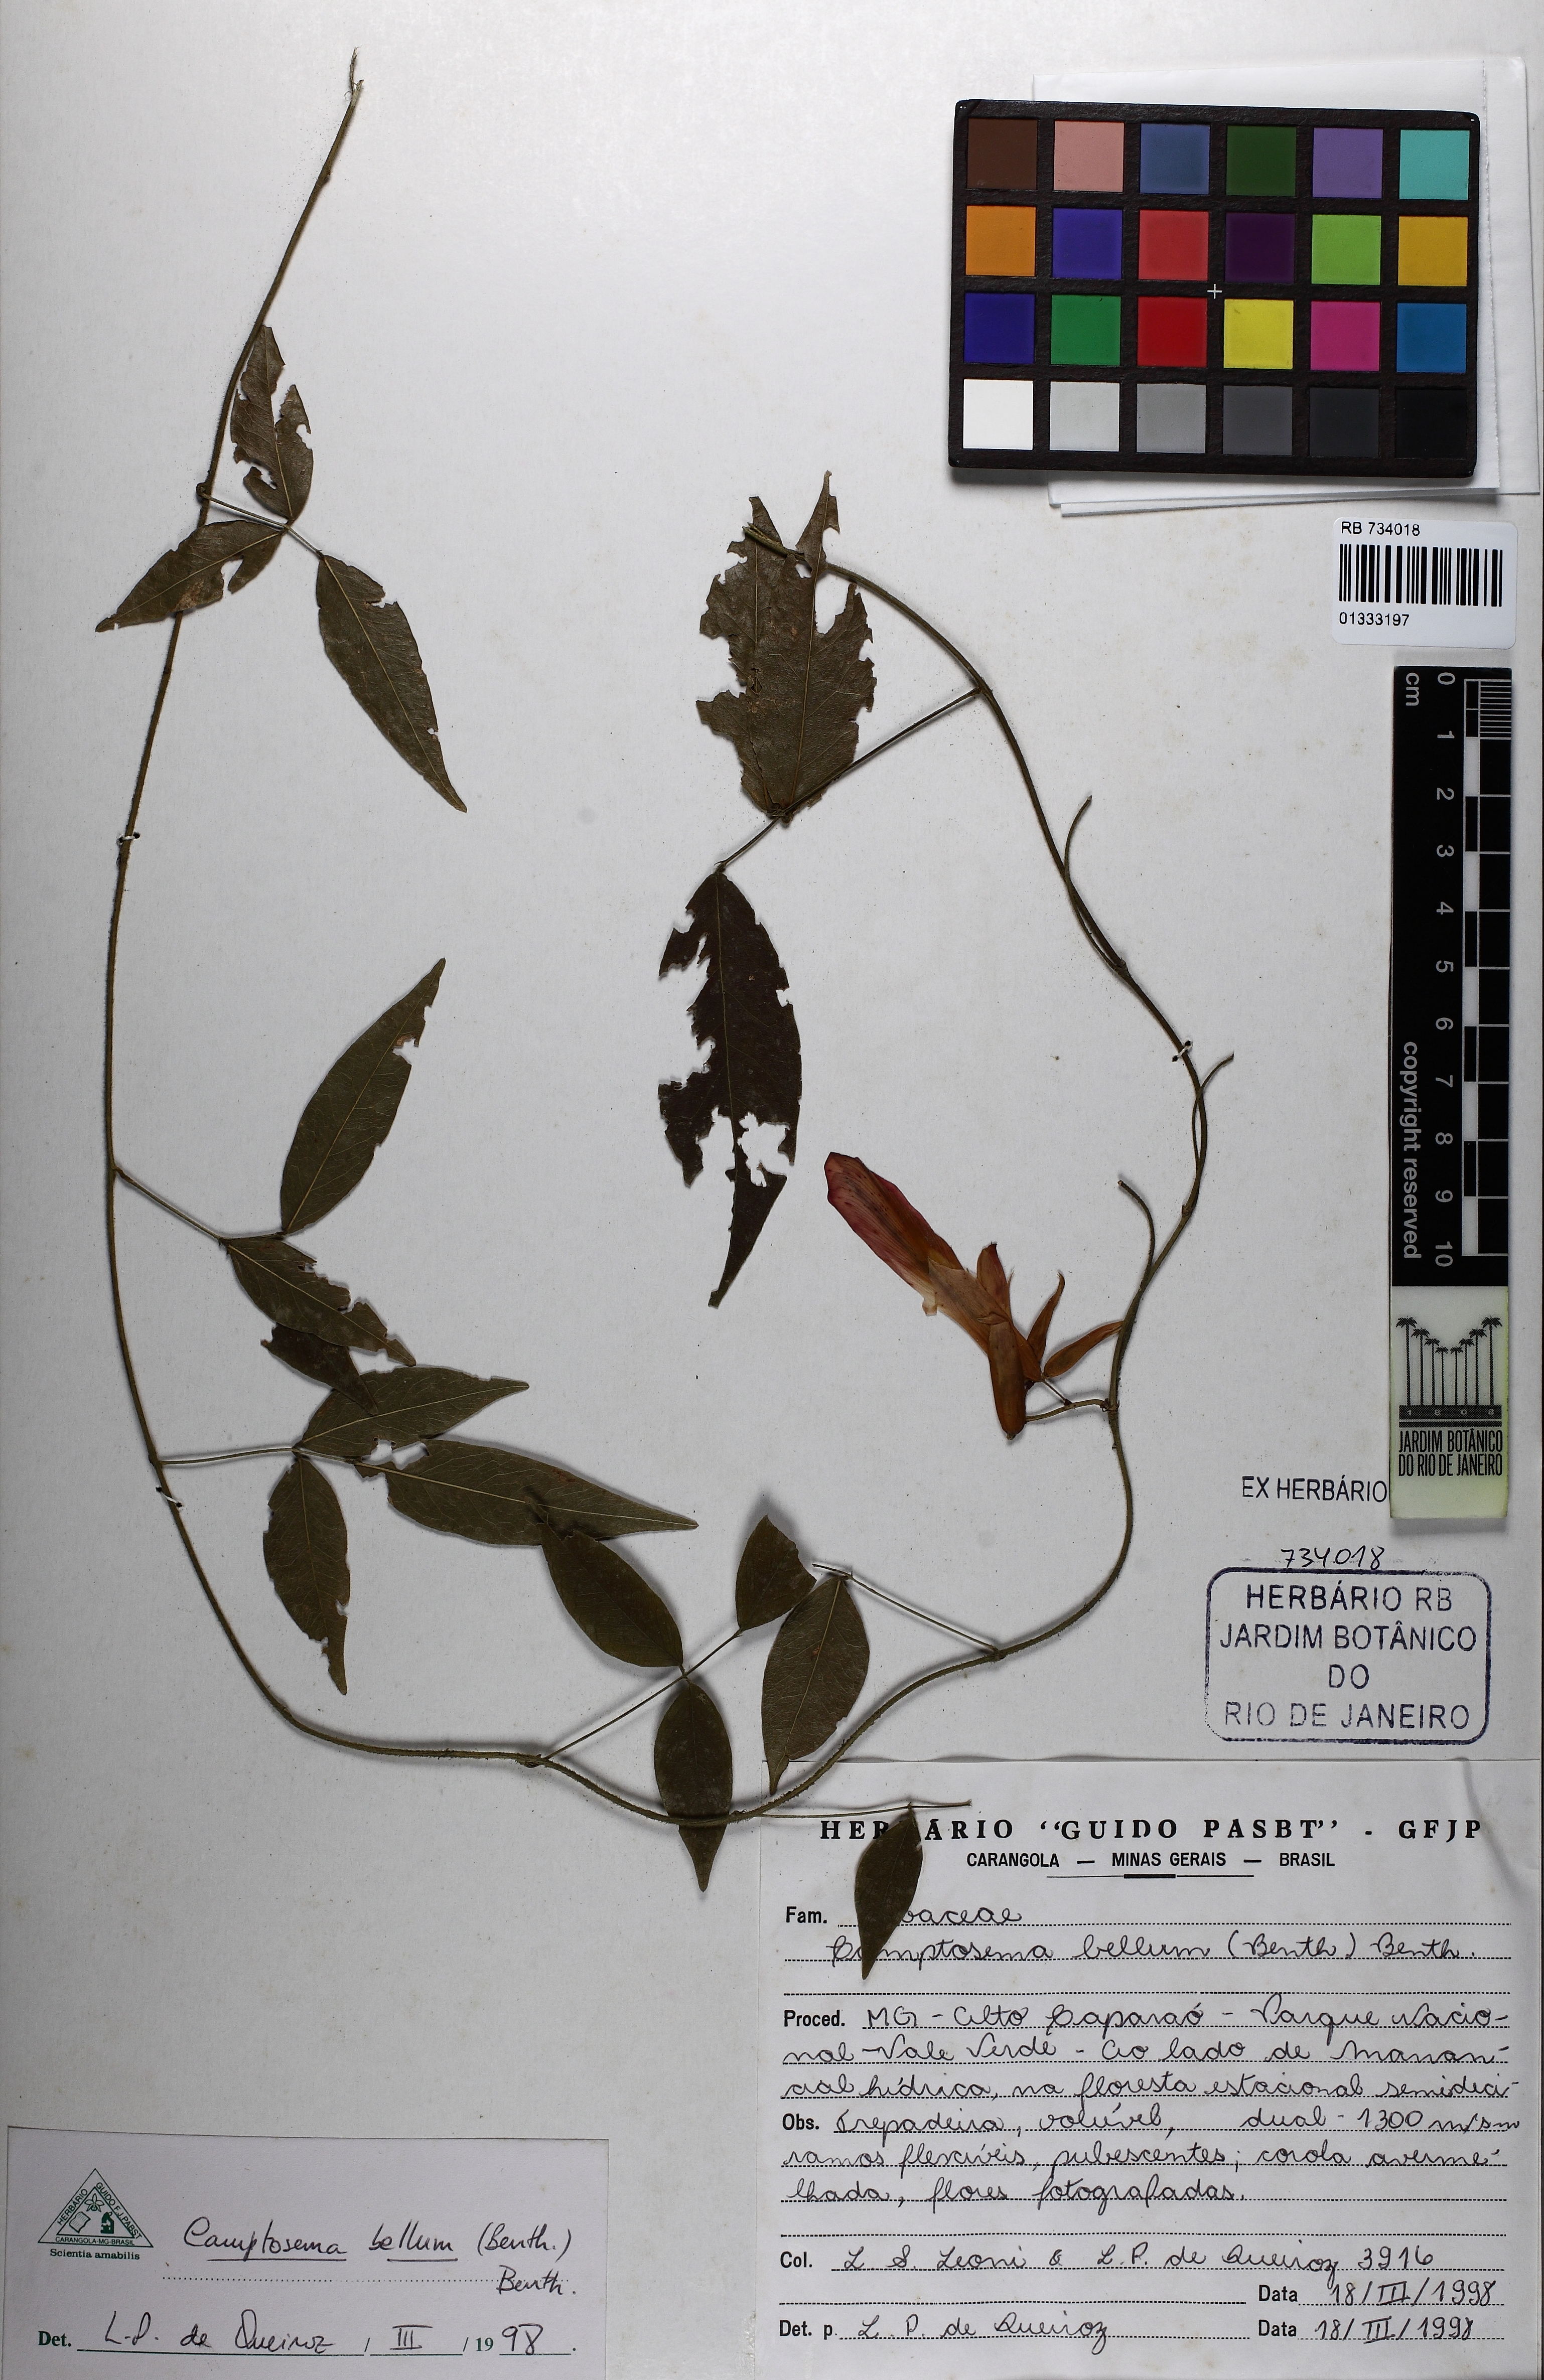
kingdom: Plantae
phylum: Tracheophyta
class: Magnoliopsida
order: Fabales
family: Fabaceae
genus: Mantiqueira
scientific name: Mantiqueira bella
